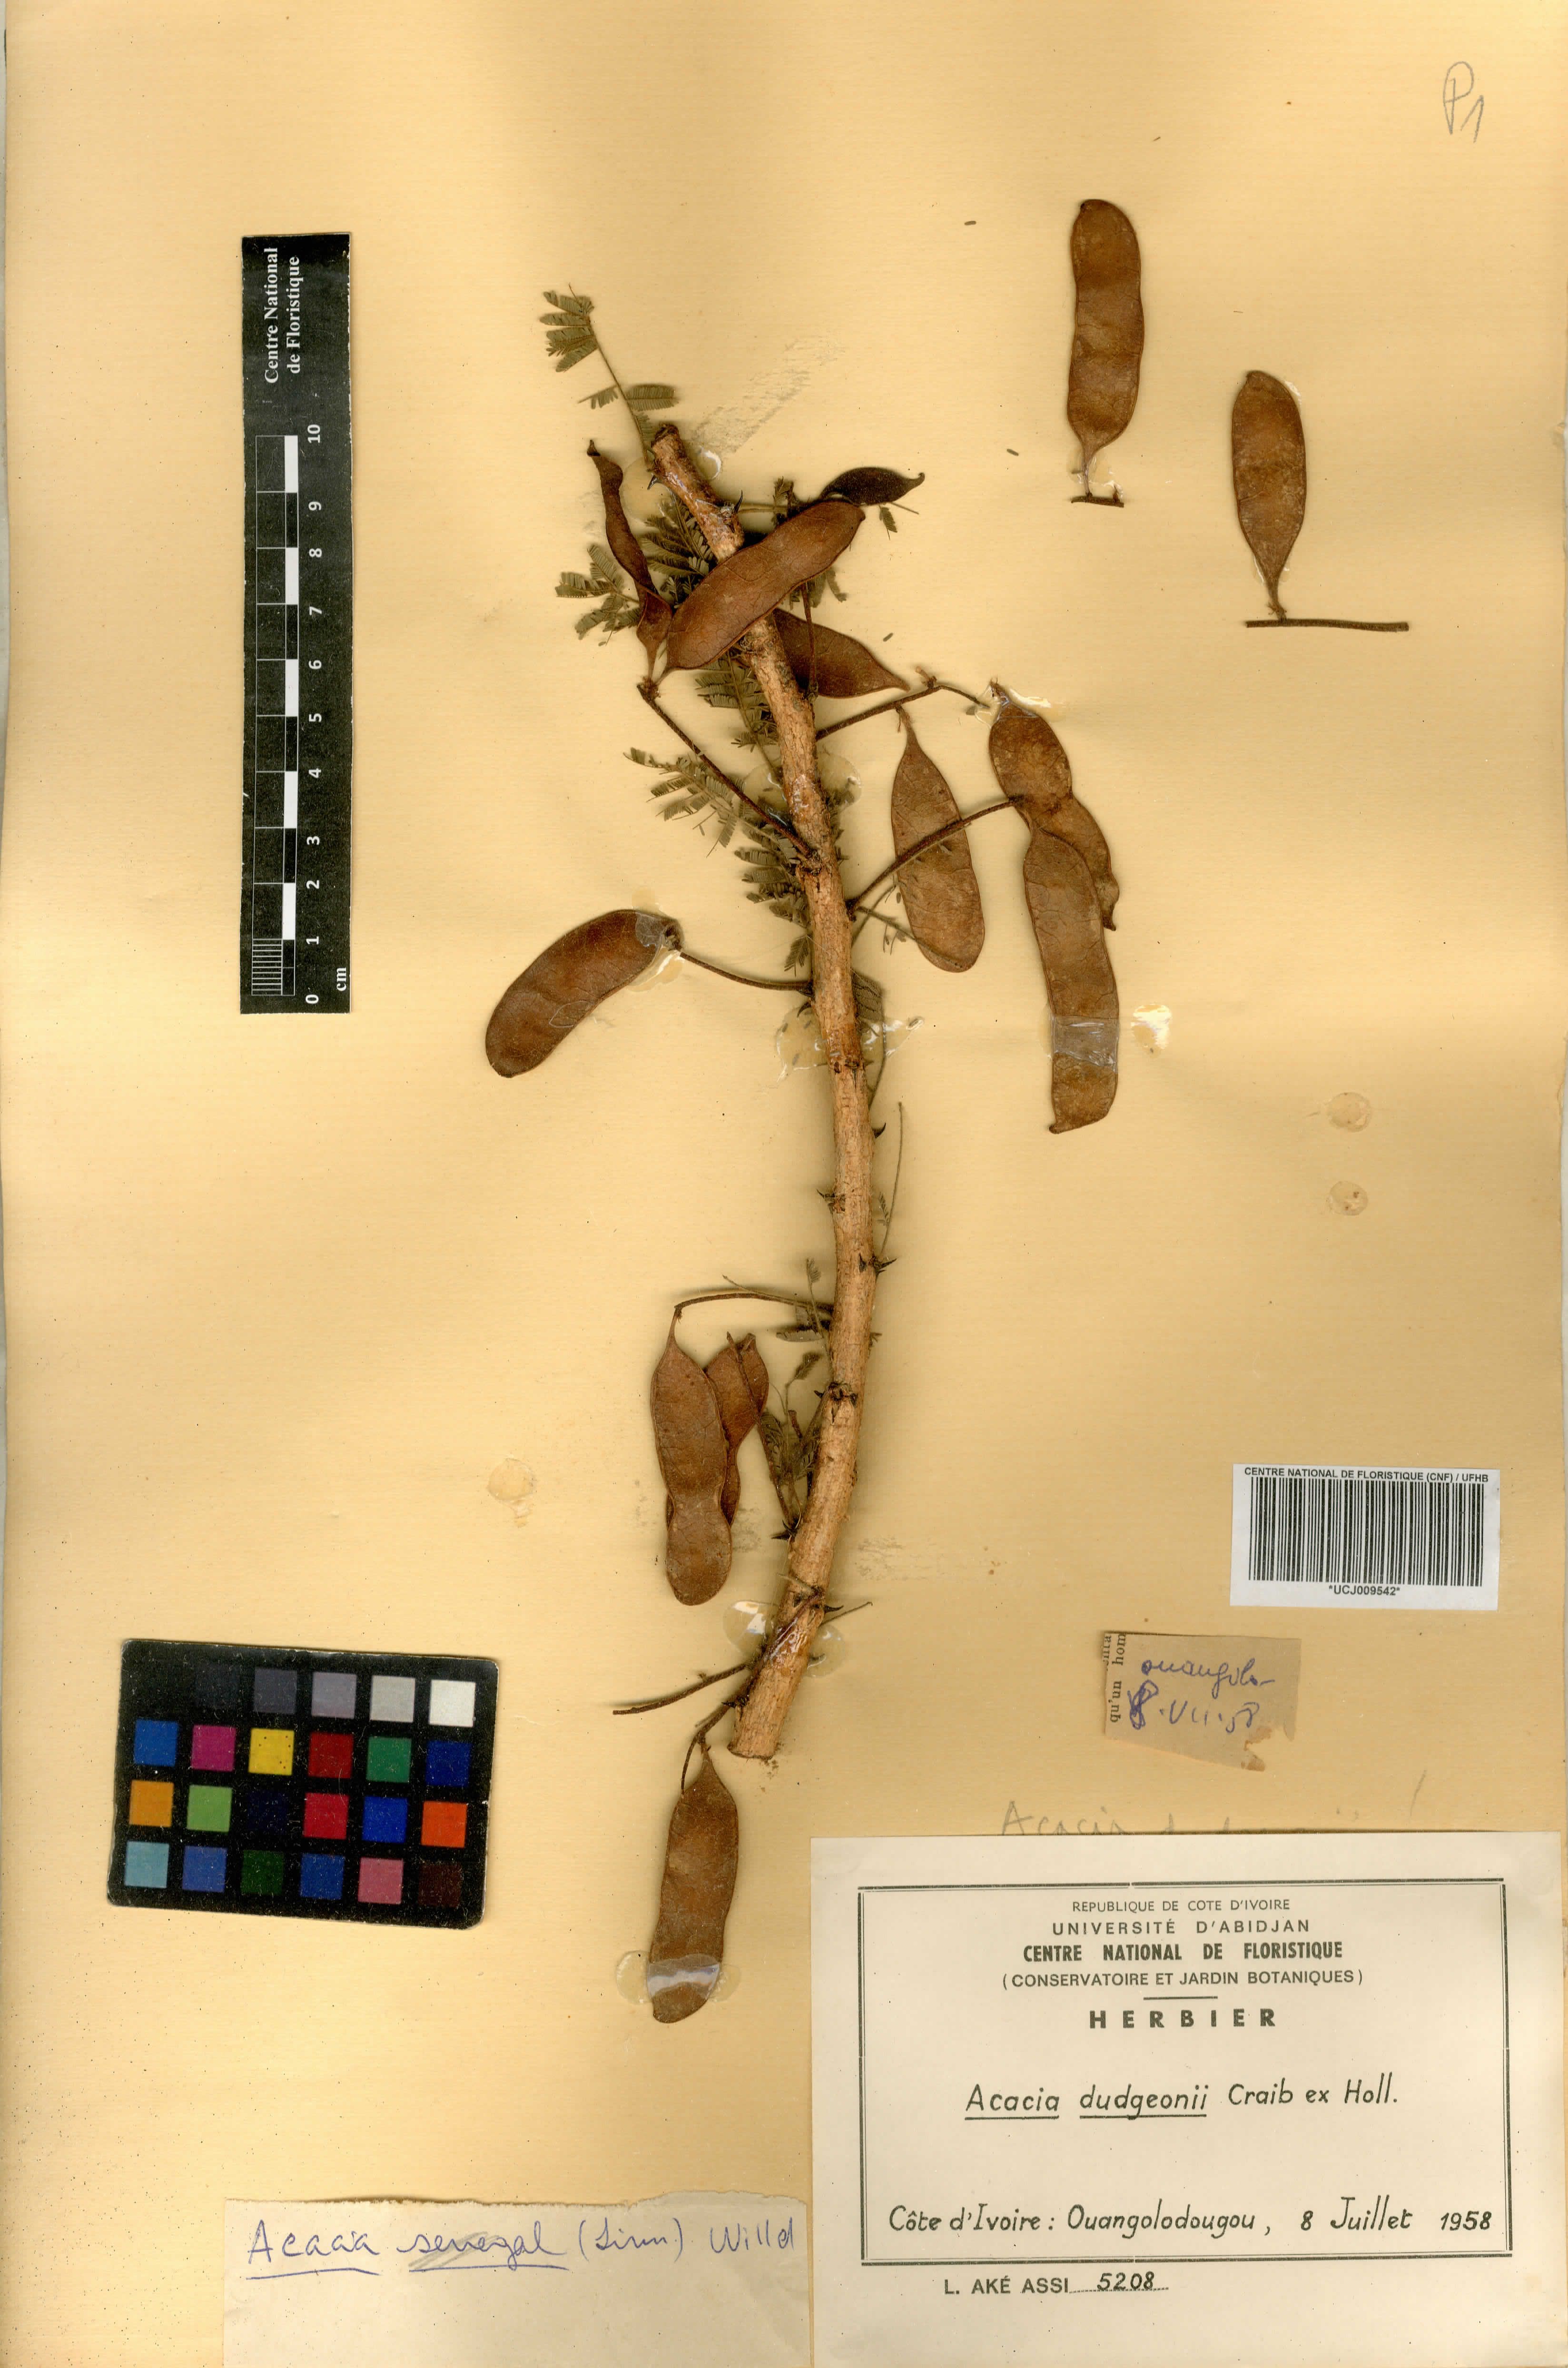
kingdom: Plantae
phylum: Tracheophyta
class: Magnoliopsida
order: Fabales
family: Fabaceae
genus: Senegalia
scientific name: Senegalia dudgeonii
